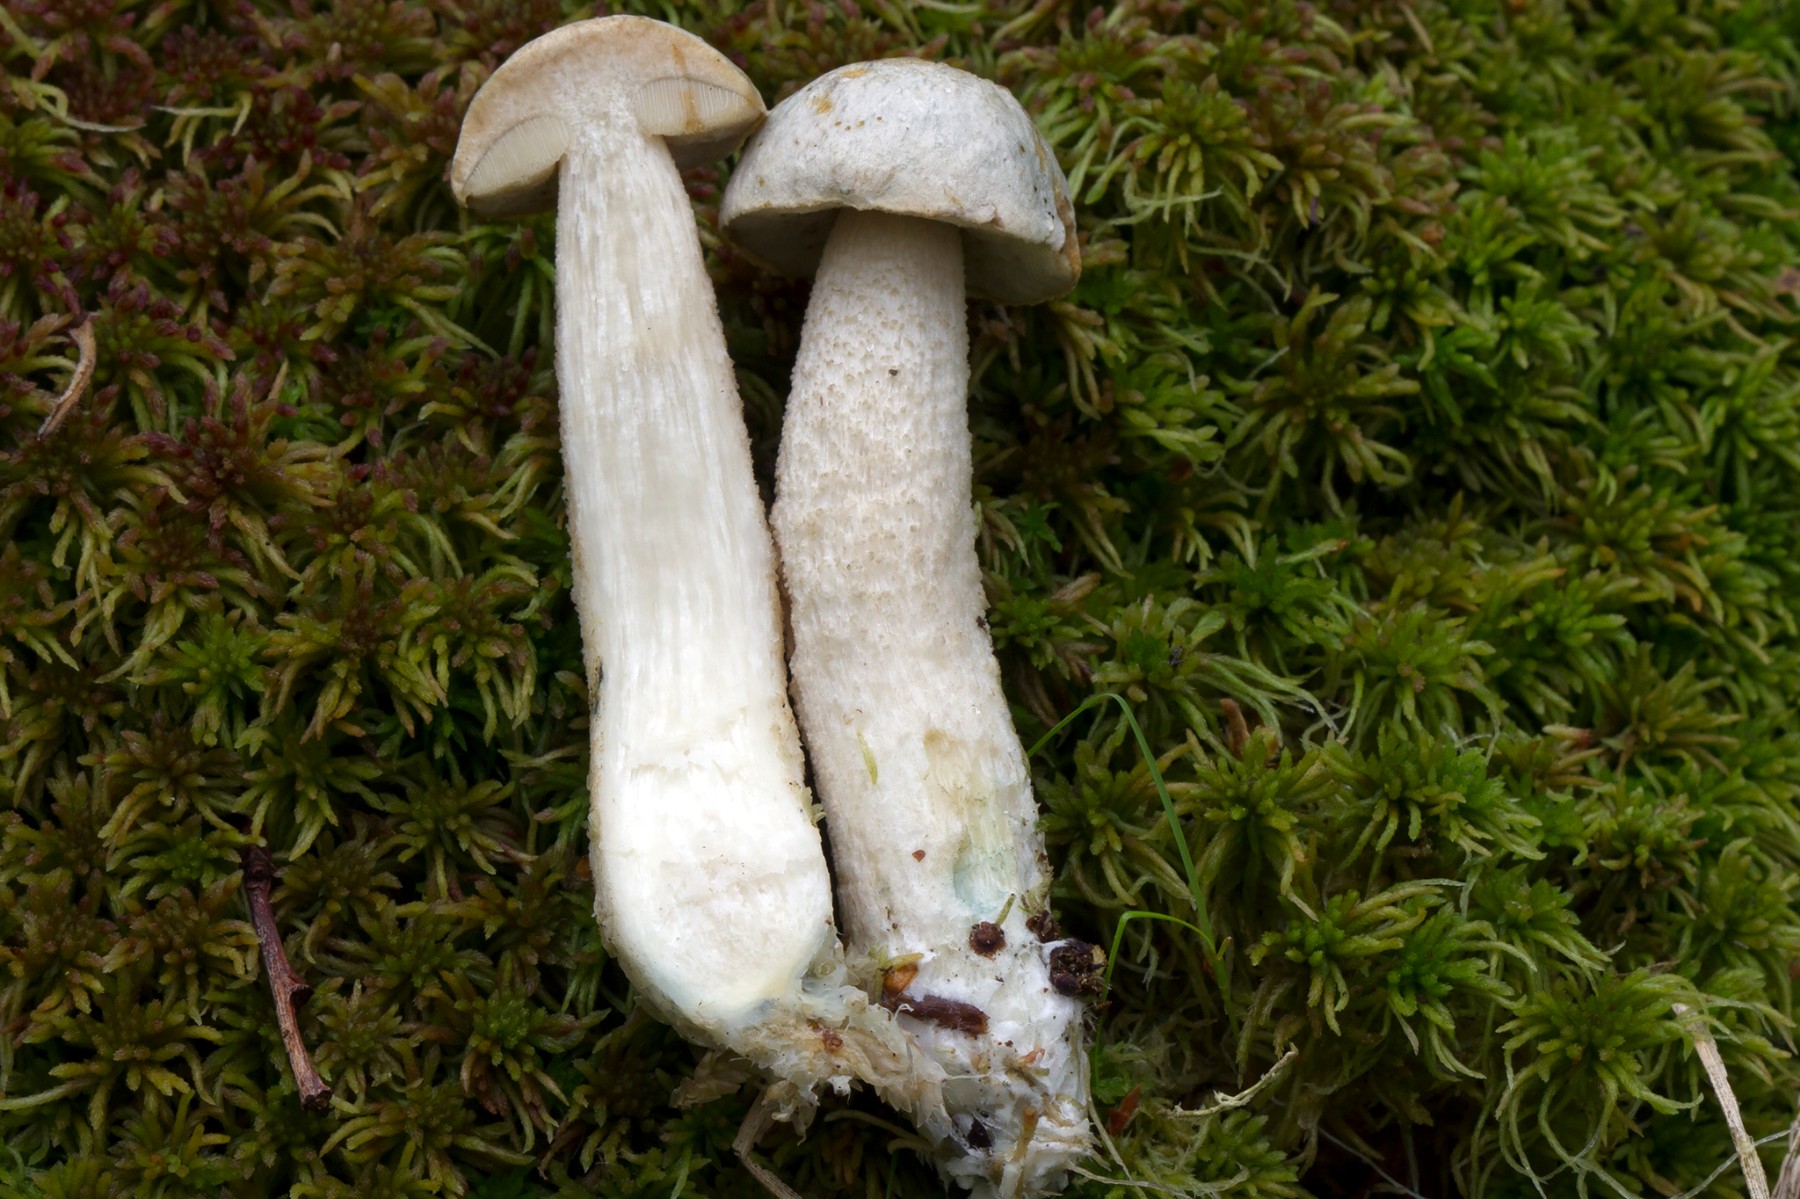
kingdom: Fungi
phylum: Basidiomycota
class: Agaricomycetes
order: Boletales
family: Boletaceae
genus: Leccinum
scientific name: Leccinum scabrum
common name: hvid skælrørhat
